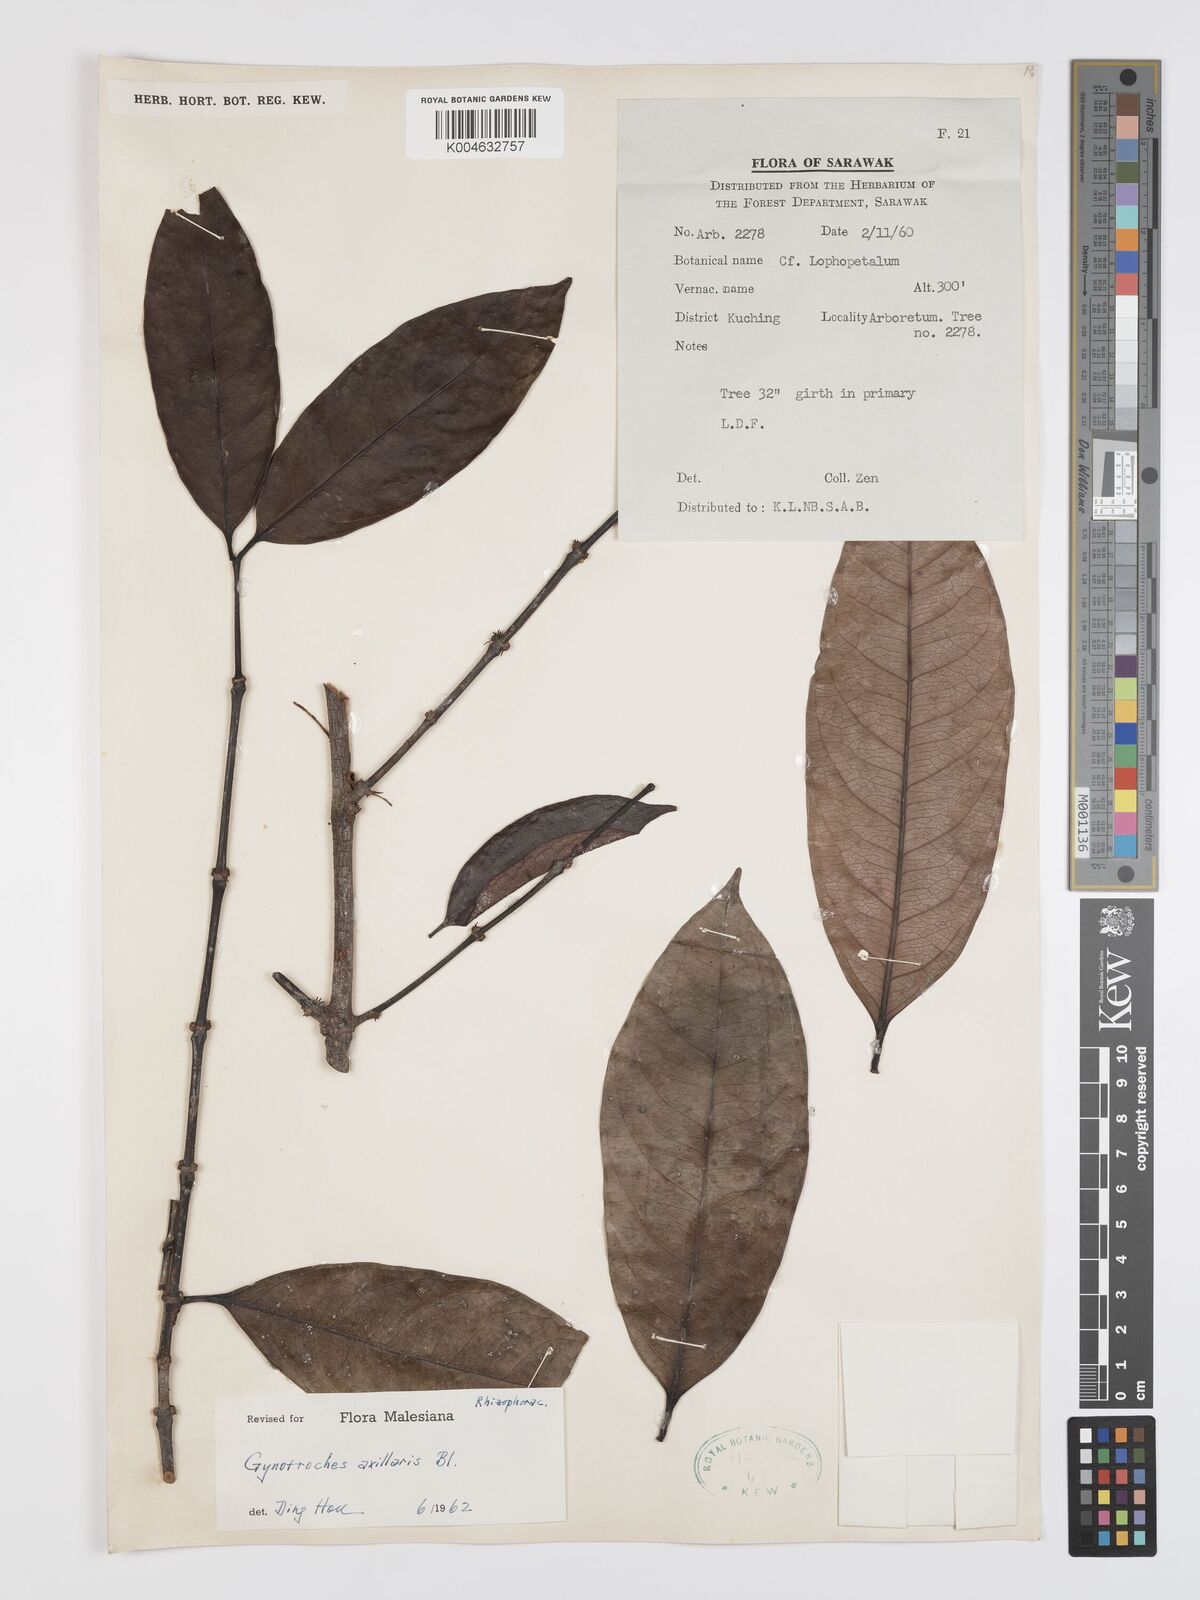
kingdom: Plantae
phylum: Tracheophyta
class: Magnoliopsida
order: Malpighiales
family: Rhizophoraceae
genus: Gynotroches
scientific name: Gynotroches axillaris
